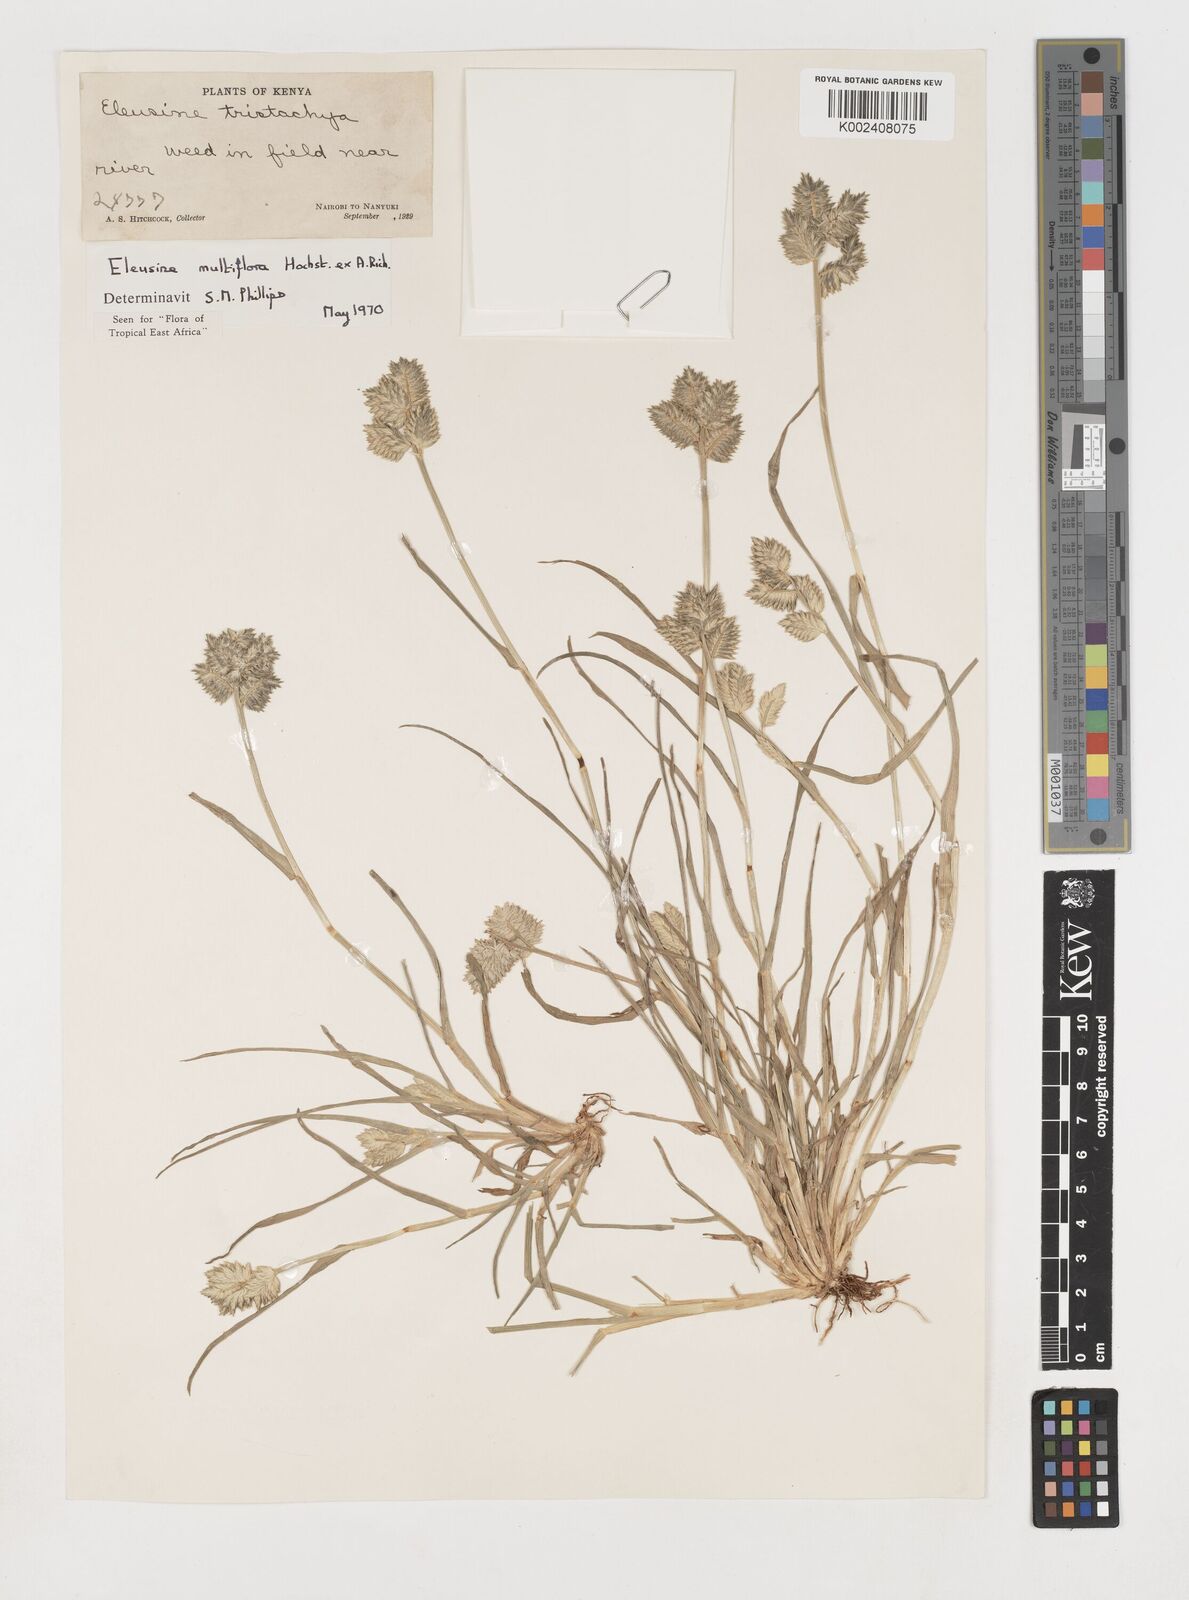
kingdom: Plantae
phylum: Tracheophyta
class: Liliopsida
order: Poales
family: Poaceae
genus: Eleusine
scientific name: Eleusine multiflora
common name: Fat-spiked yard-grass
